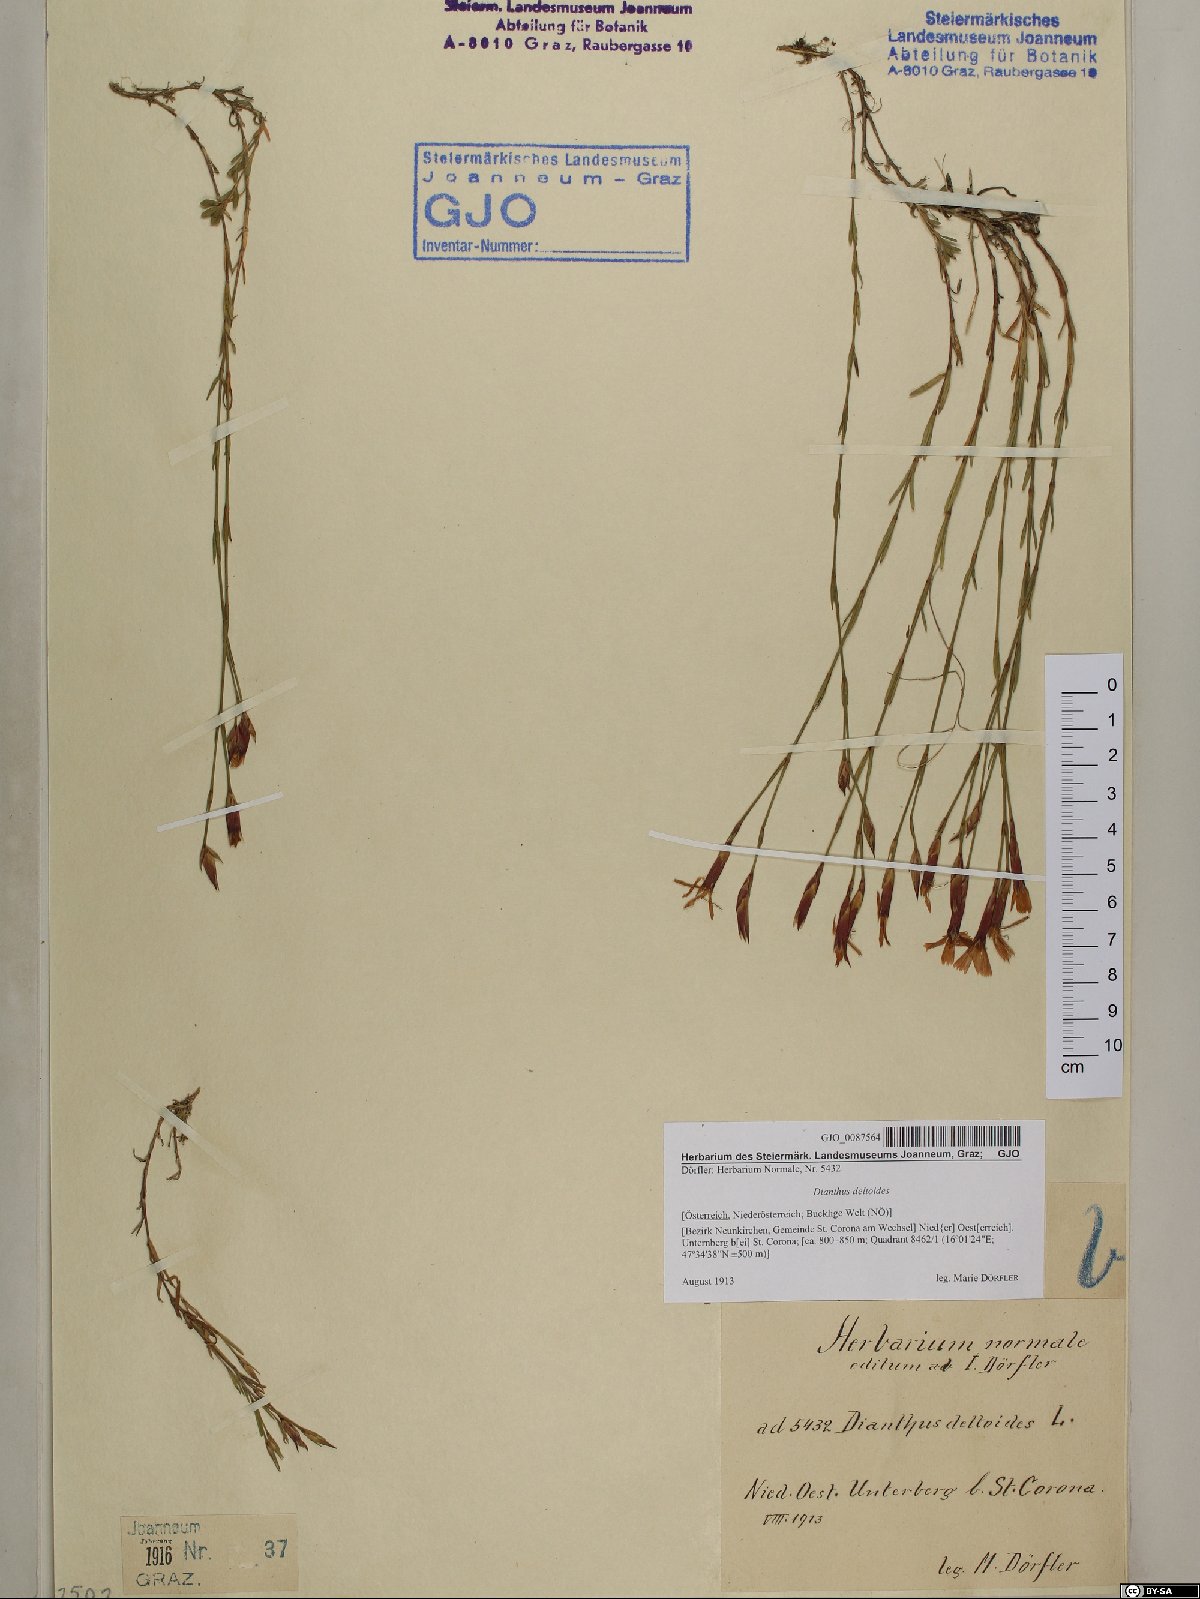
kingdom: Plantae
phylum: Tracheophyta
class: Magnoliopsida
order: Caryophyllales
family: Caryophyllaceae
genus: Dianthus
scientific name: Dianthus deltoides
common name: Maiden pink
